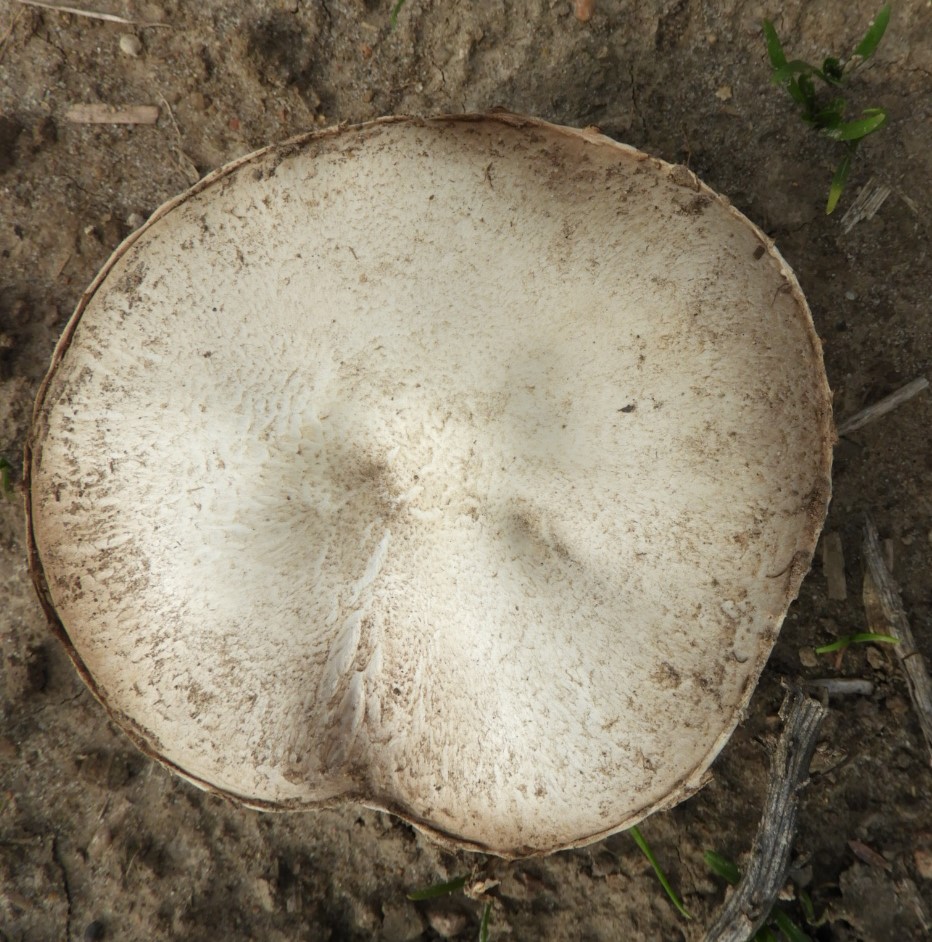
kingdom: Fungi
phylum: Basidiomycota
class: Agaricomycetes
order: Agaricales
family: Agaricaceae
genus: Agaricus
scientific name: Agaricus campestris
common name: mark-champignon
